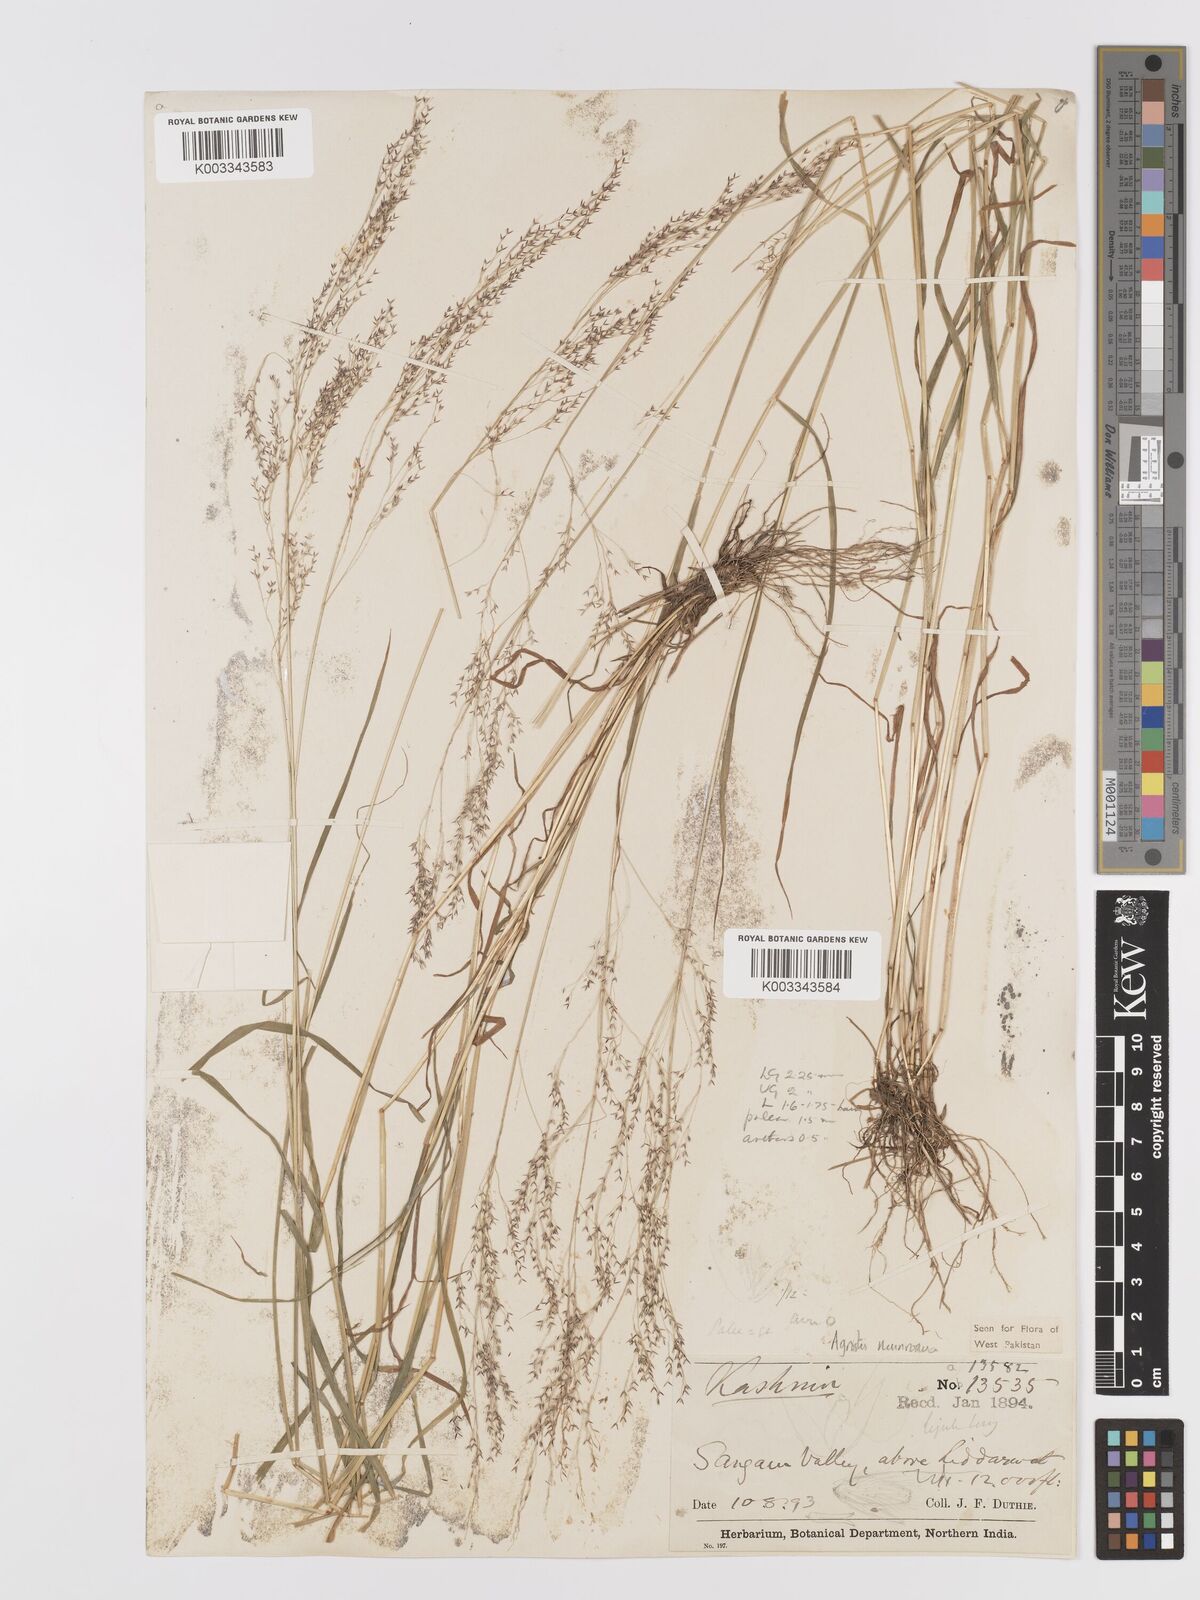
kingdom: Plantae
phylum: Tracheophyta
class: Liliopsida
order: Poales
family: Poaceae
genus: Agrostis
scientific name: Agrostis munroana
